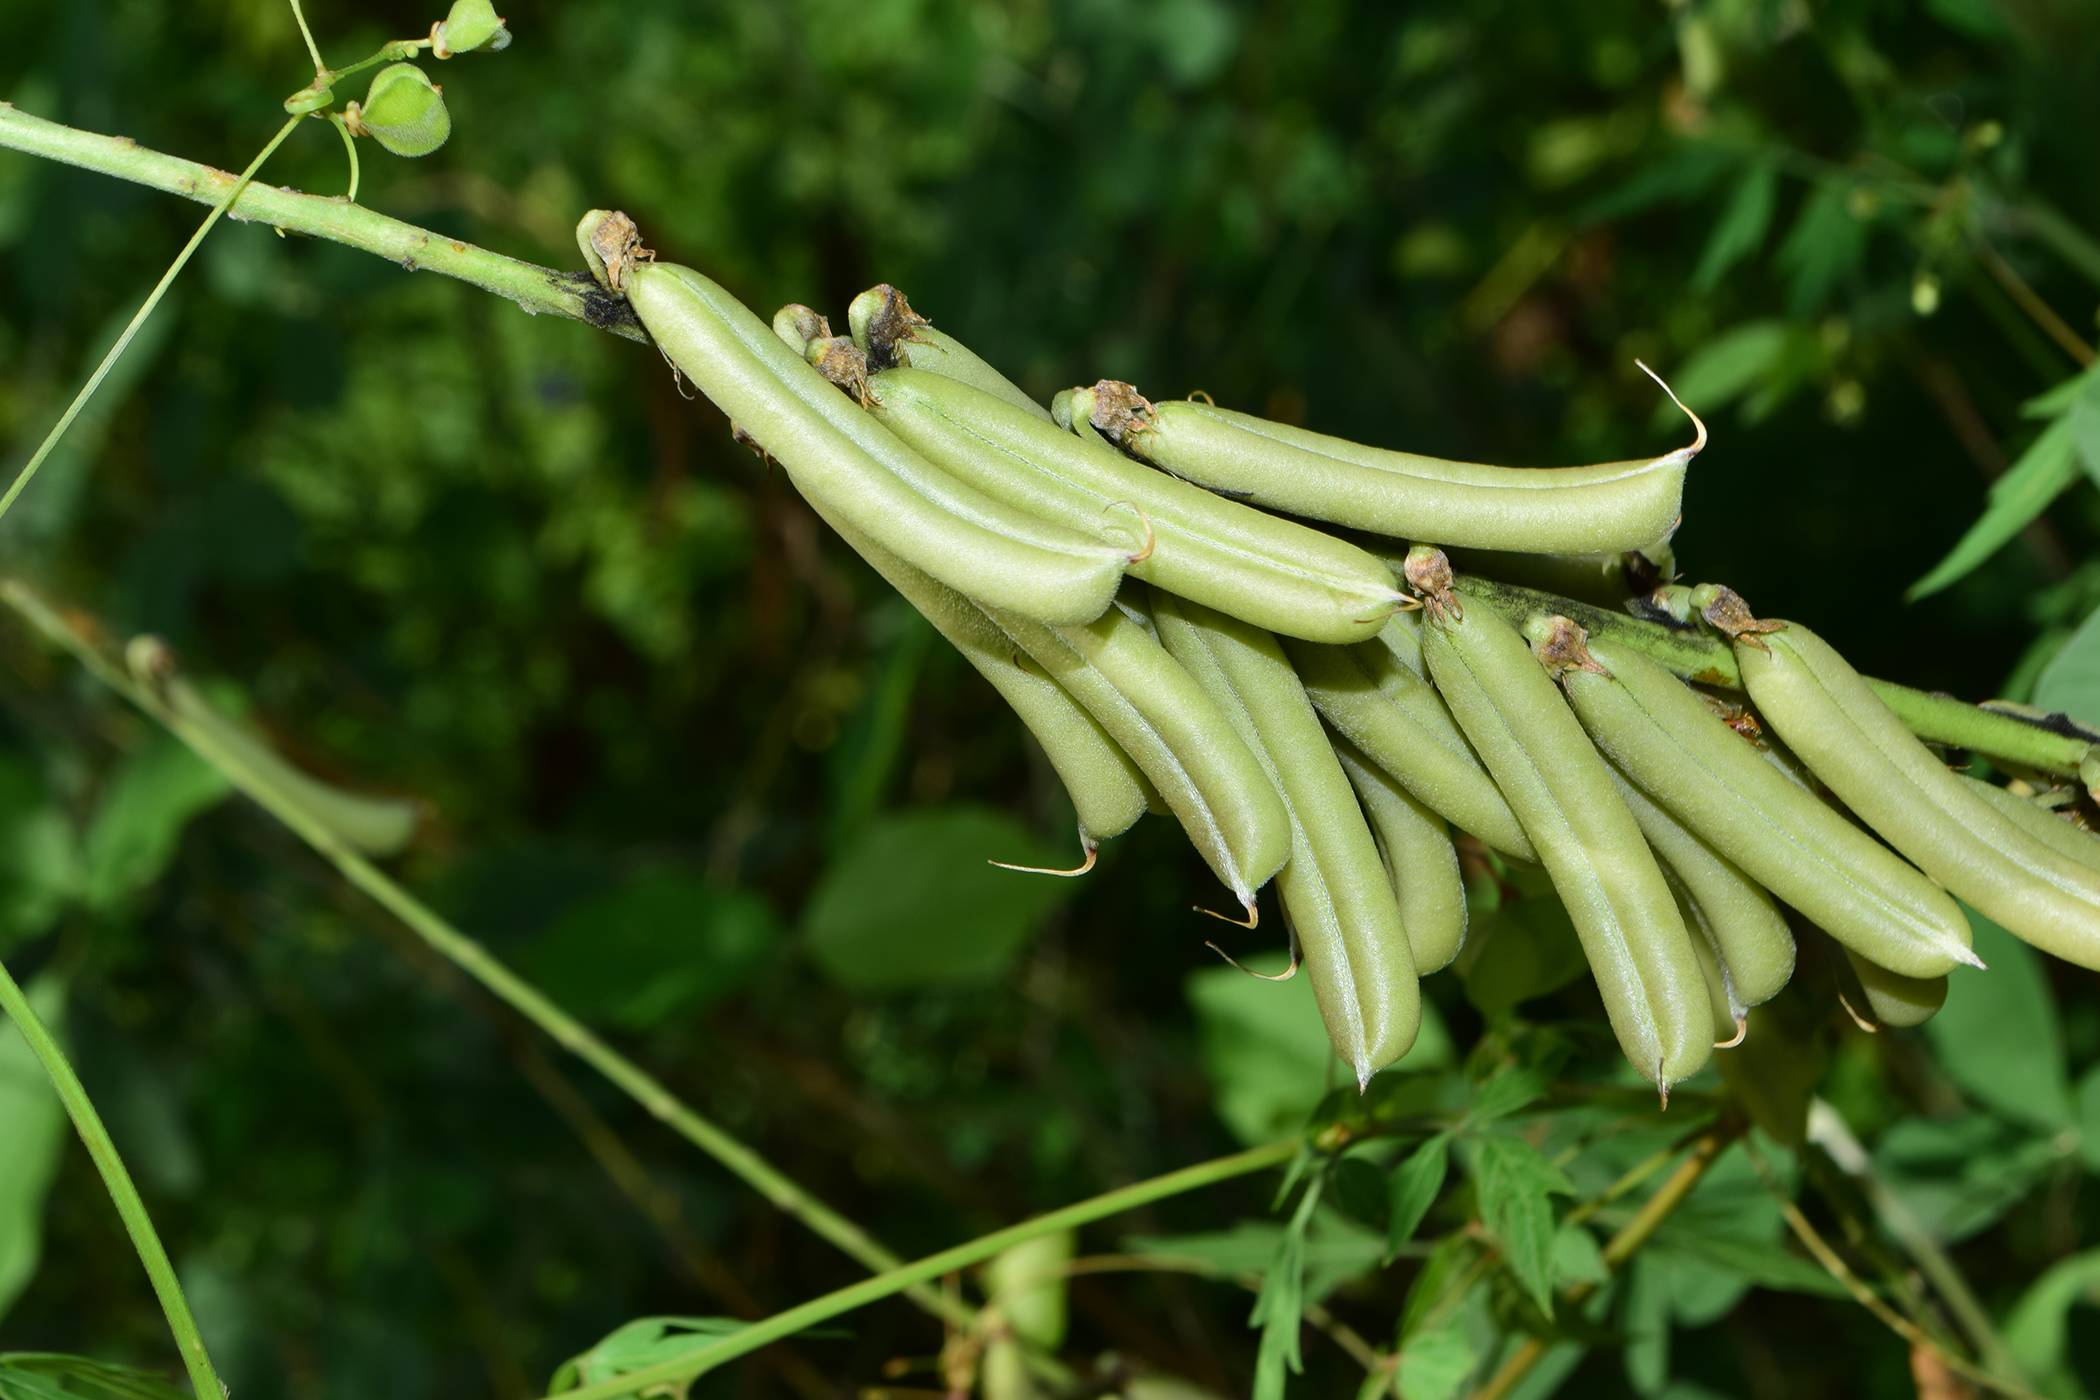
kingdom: Plantae
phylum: Tracheophyta
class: Magnoliopsida
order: Fabales
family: Fabaceae
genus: Crotalaria
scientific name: Crotalaria pallida
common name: Smooth rattlebox
